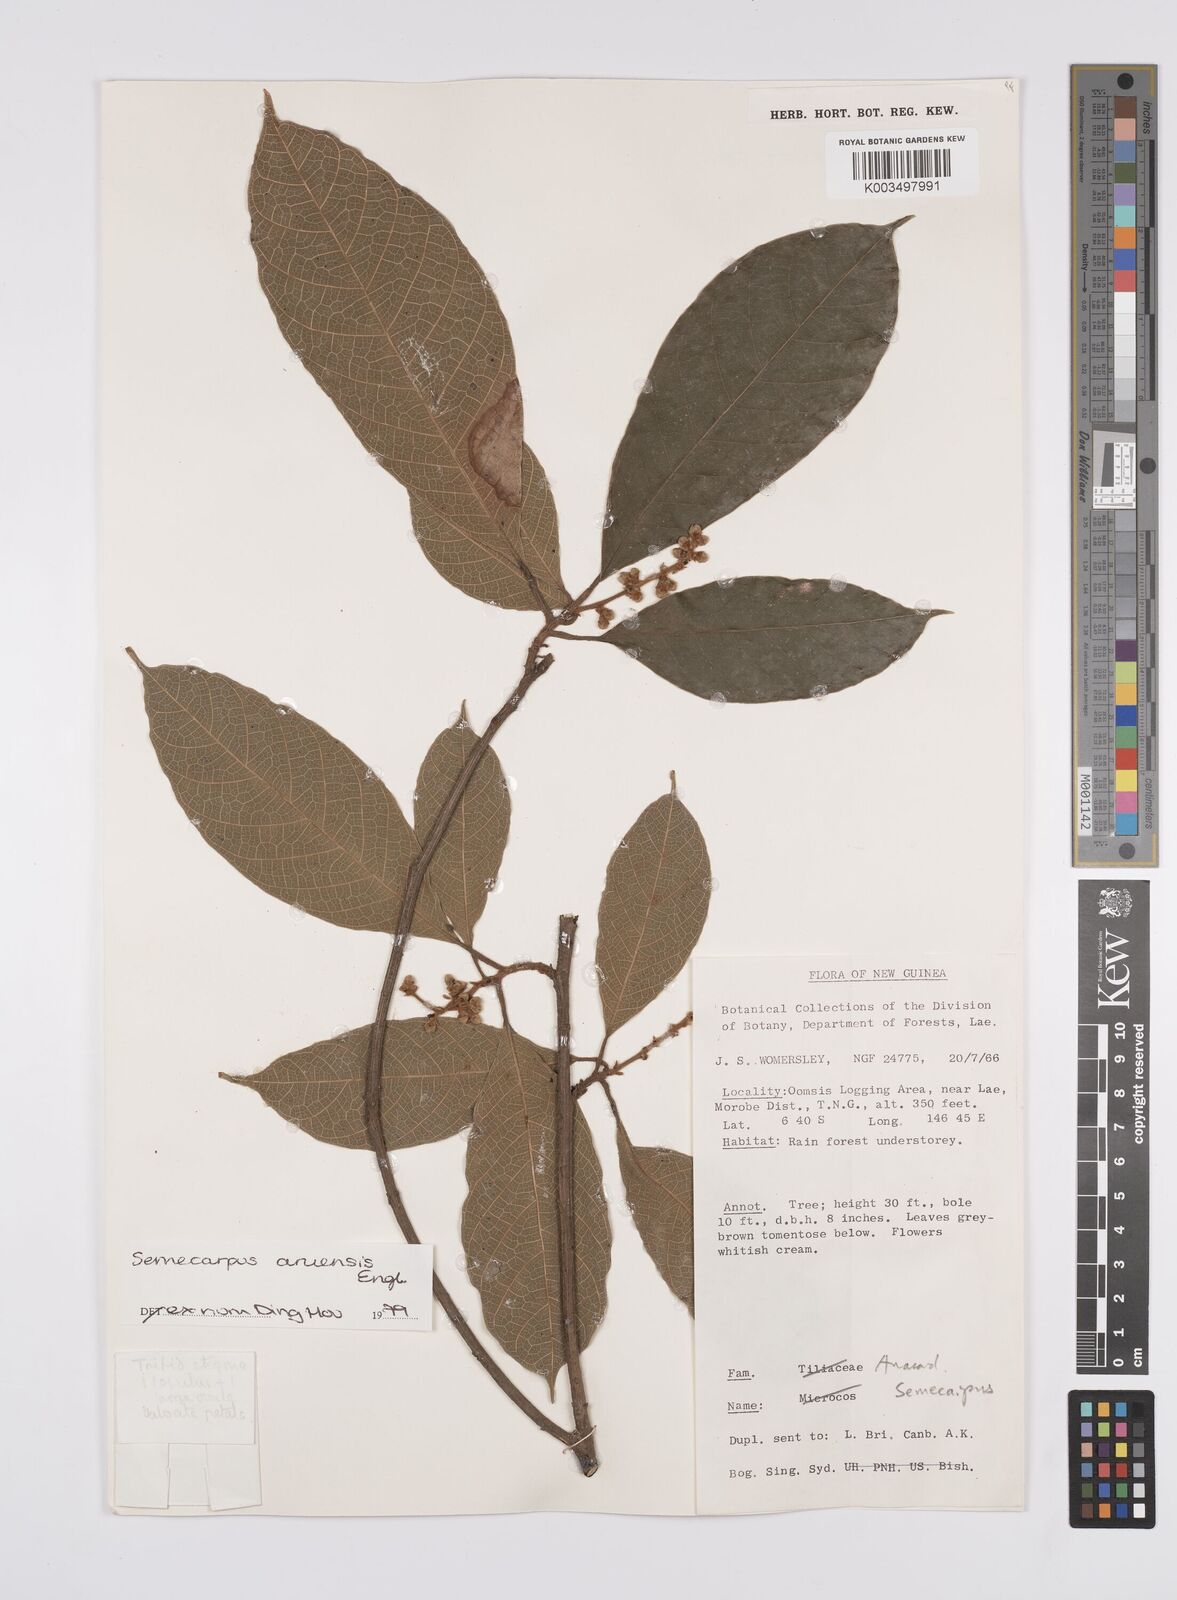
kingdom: Plantae
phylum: Tracheophyta
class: Magnoliopsida
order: Sapindales
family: Anacardiaceae
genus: Semecarpus
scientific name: Semecarpus aruensis
